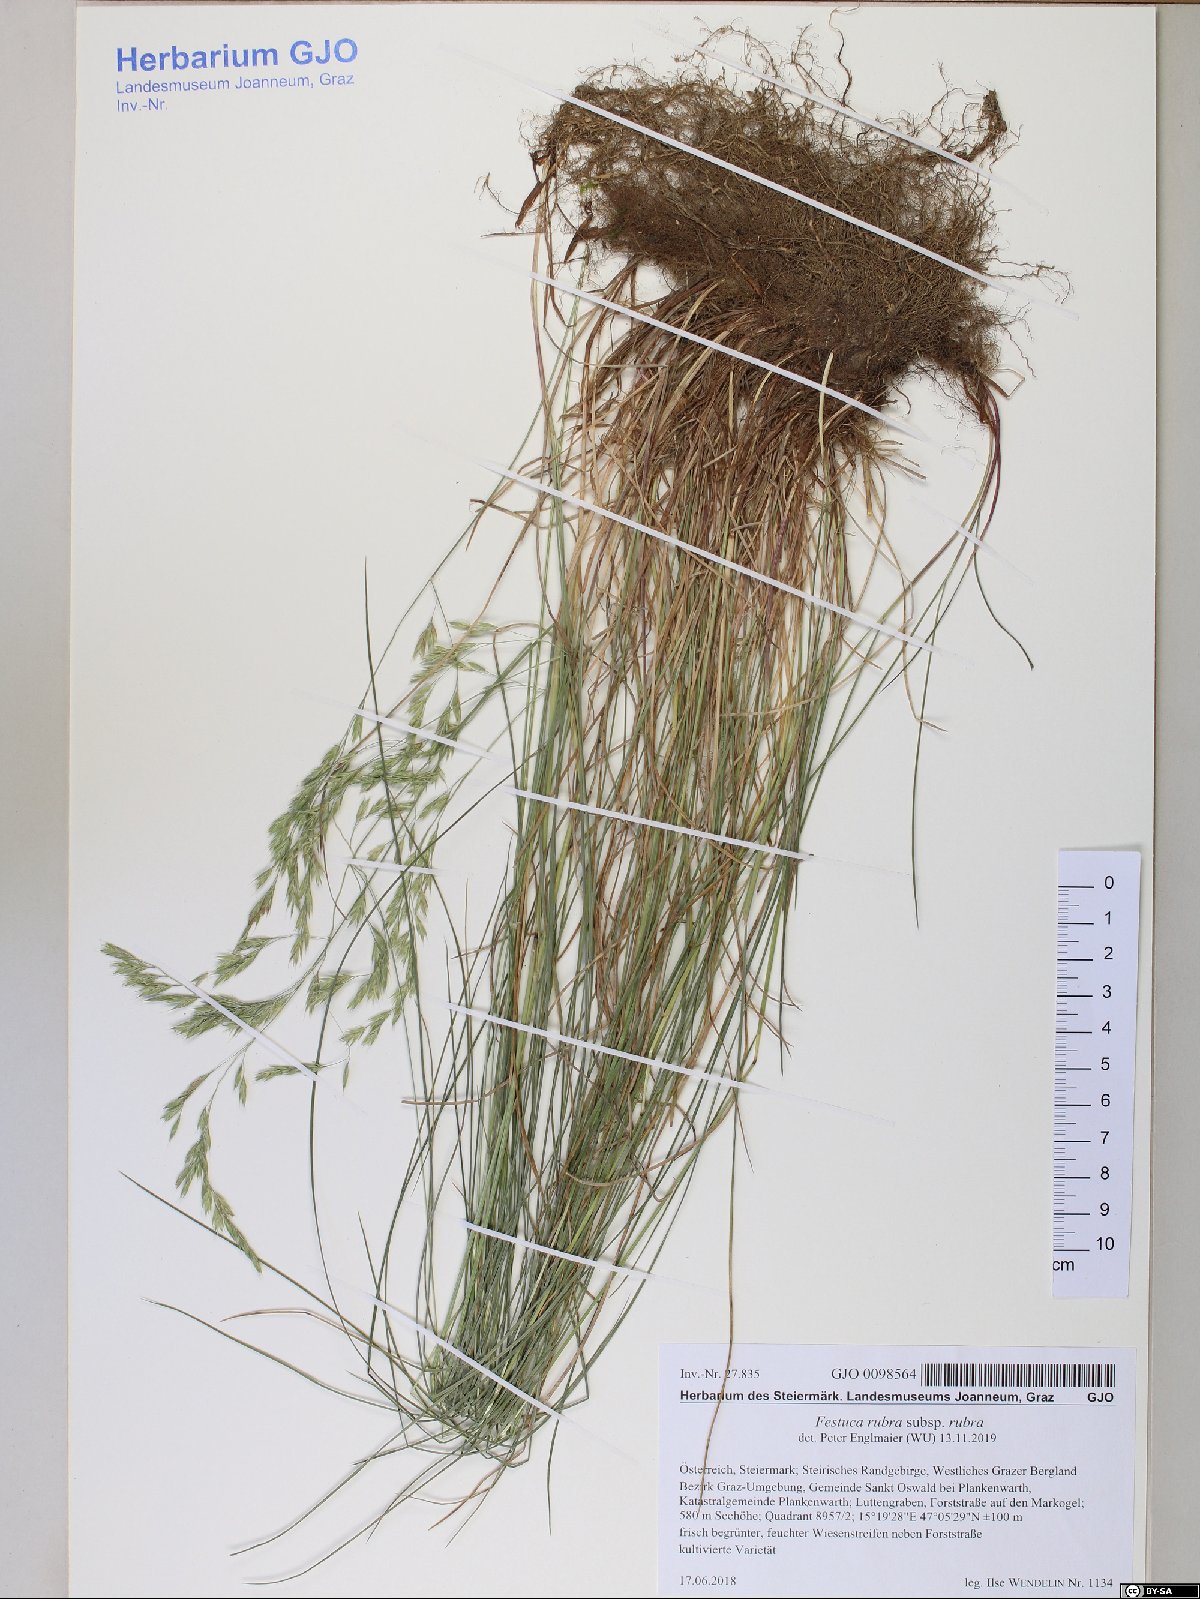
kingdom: Plantae
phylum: Tracheophyta
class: Liliopsida
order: Poales
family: Poaceae
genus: Festuca
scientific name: Festuca rubra
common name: Red fescue
